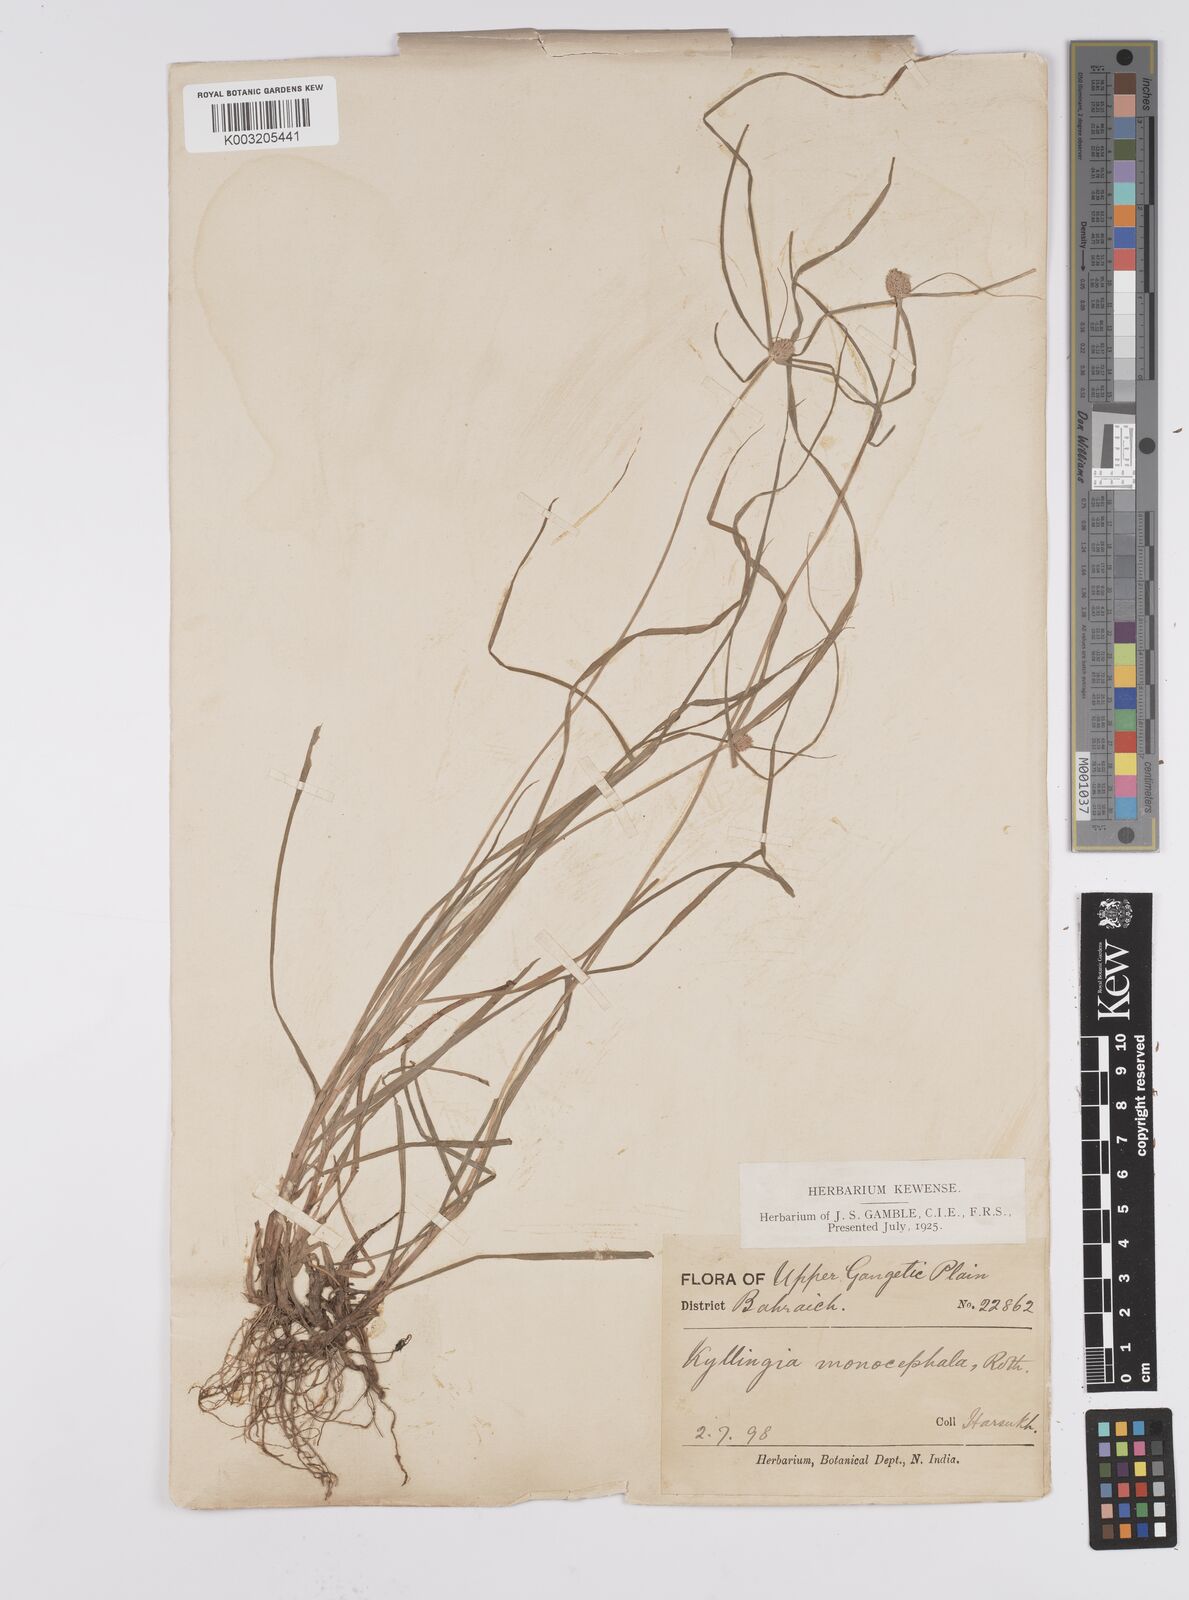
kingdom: Plantae
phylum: Tracheophyta
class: Liliopsida
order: Poales
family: Cyperaceae
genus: Cyperus
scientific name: Cyperus nemoralis
